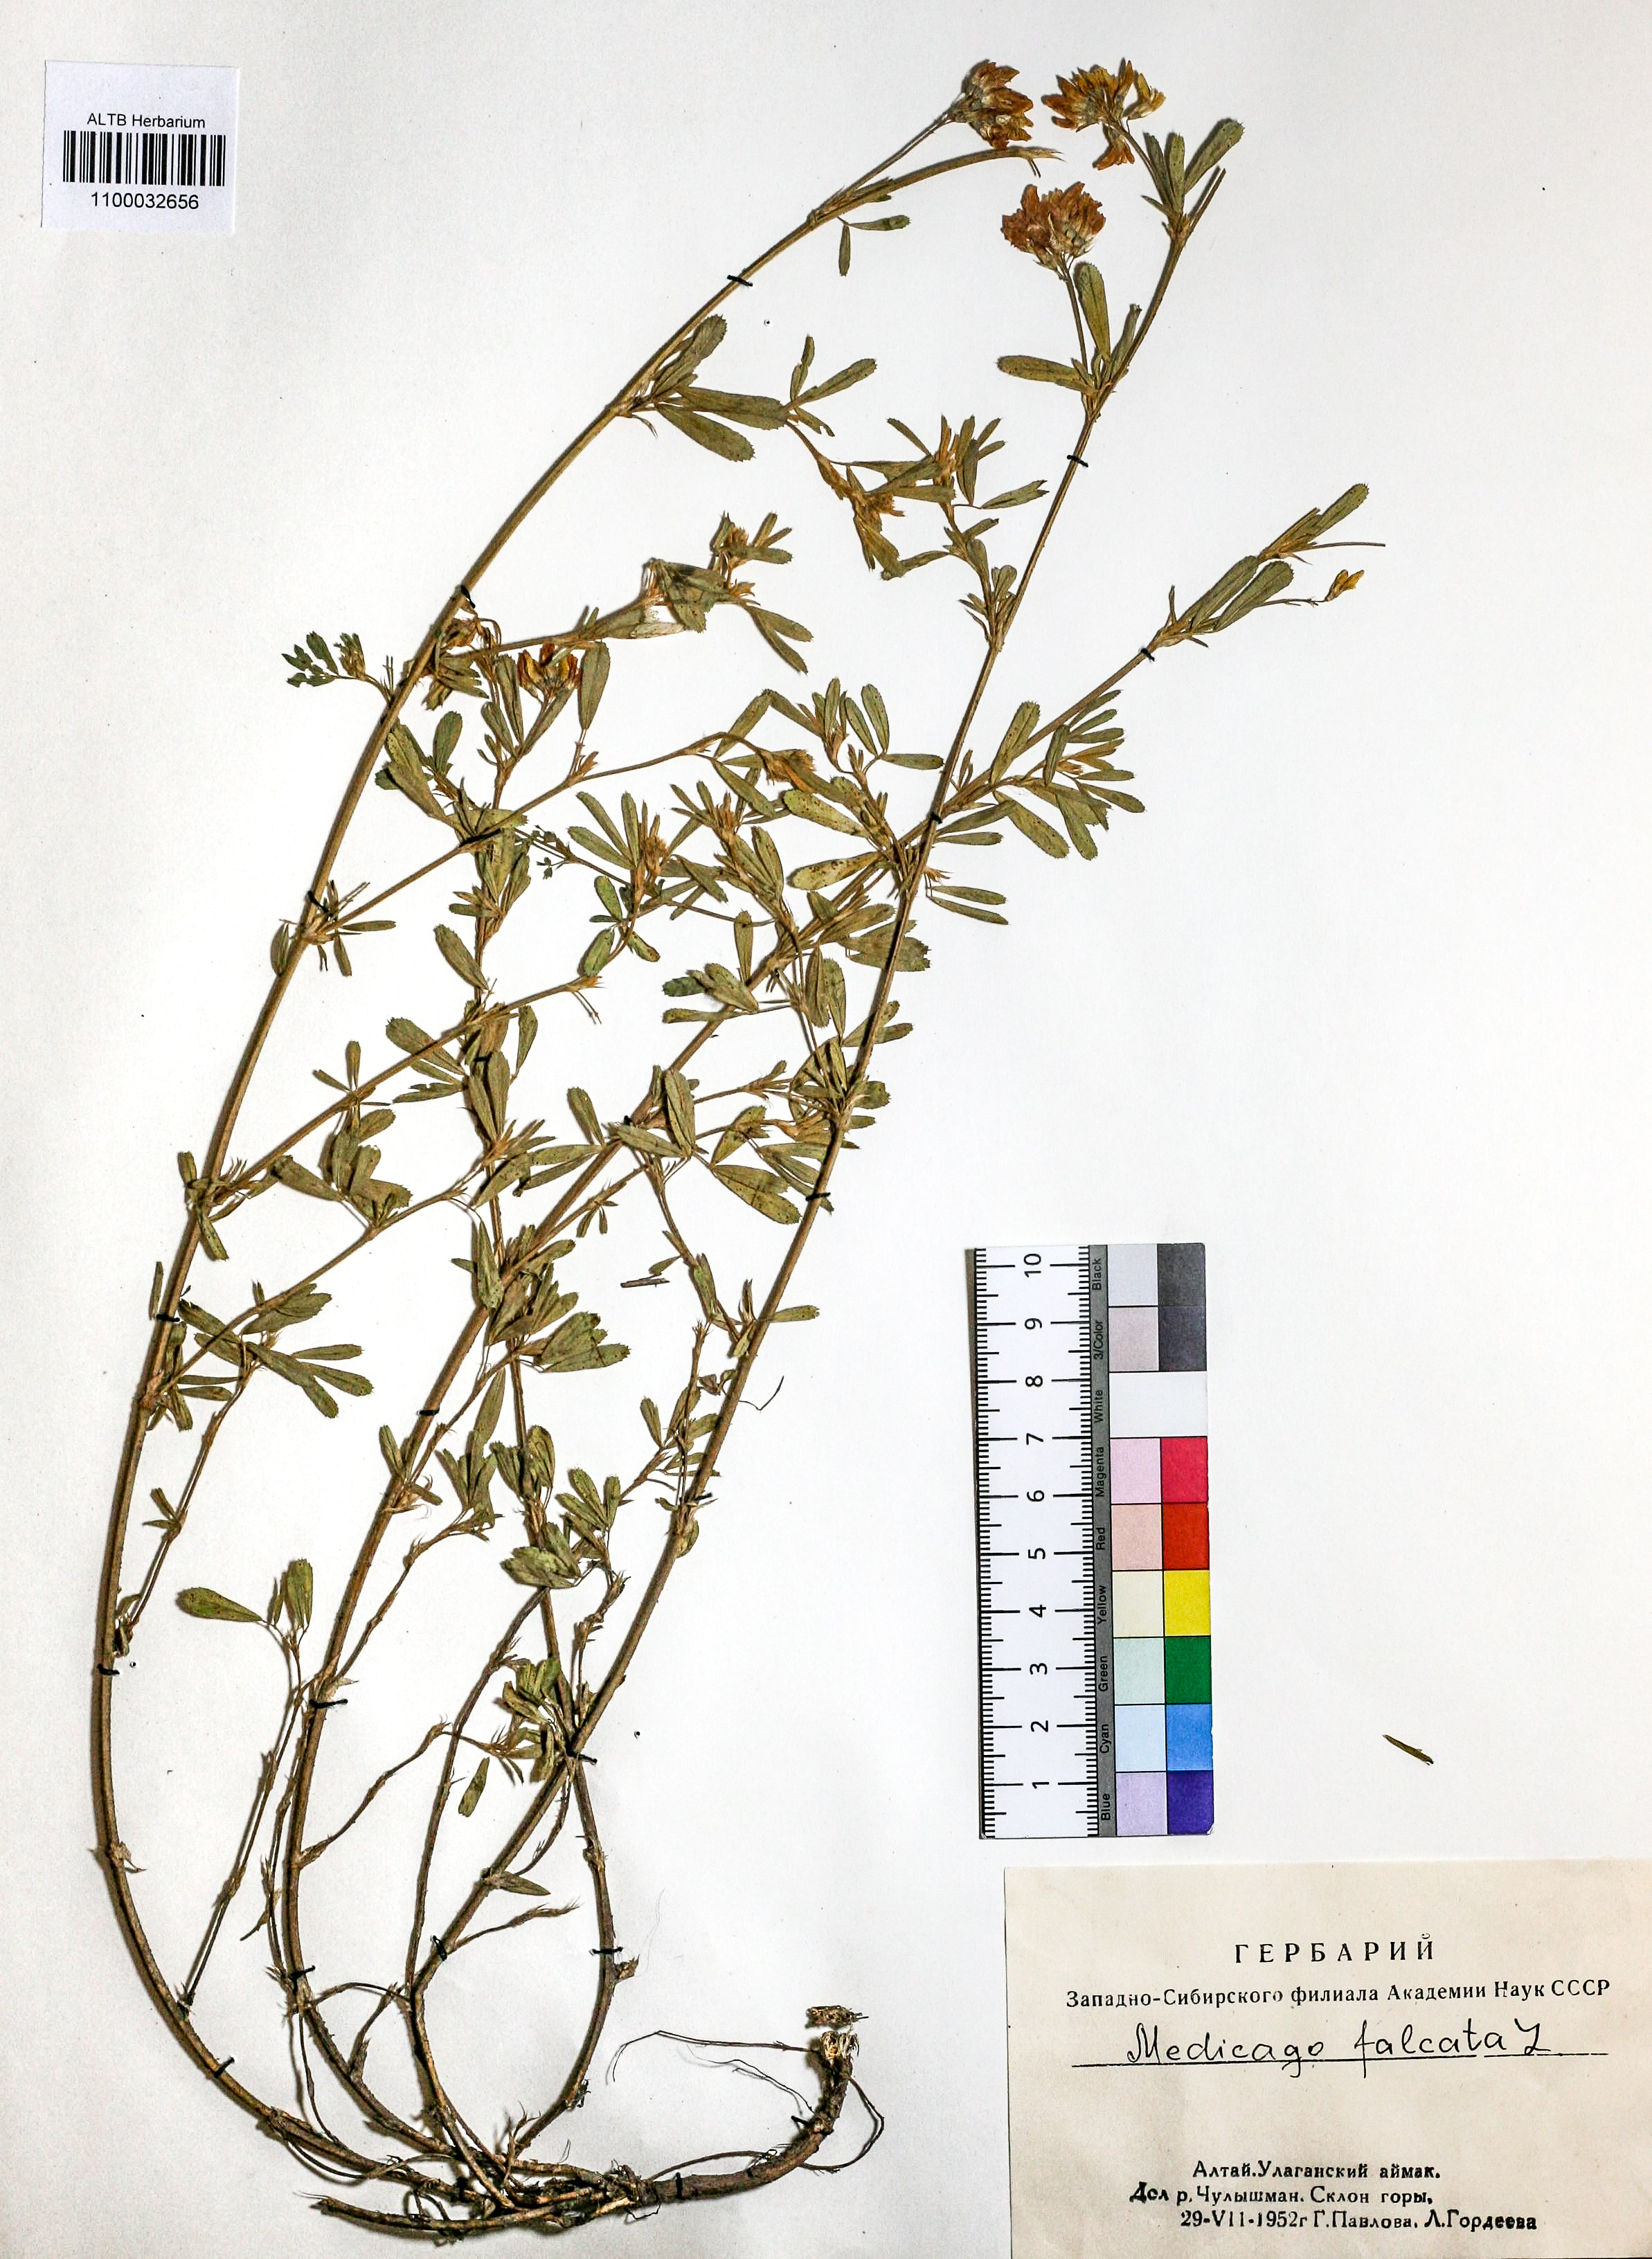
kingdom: Plantae
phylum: Tracheophyta
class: Magnoliopsida
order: Fabales
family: Fabaceae
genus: Medicago
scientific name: Medicago falcata
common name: Sickle medick
